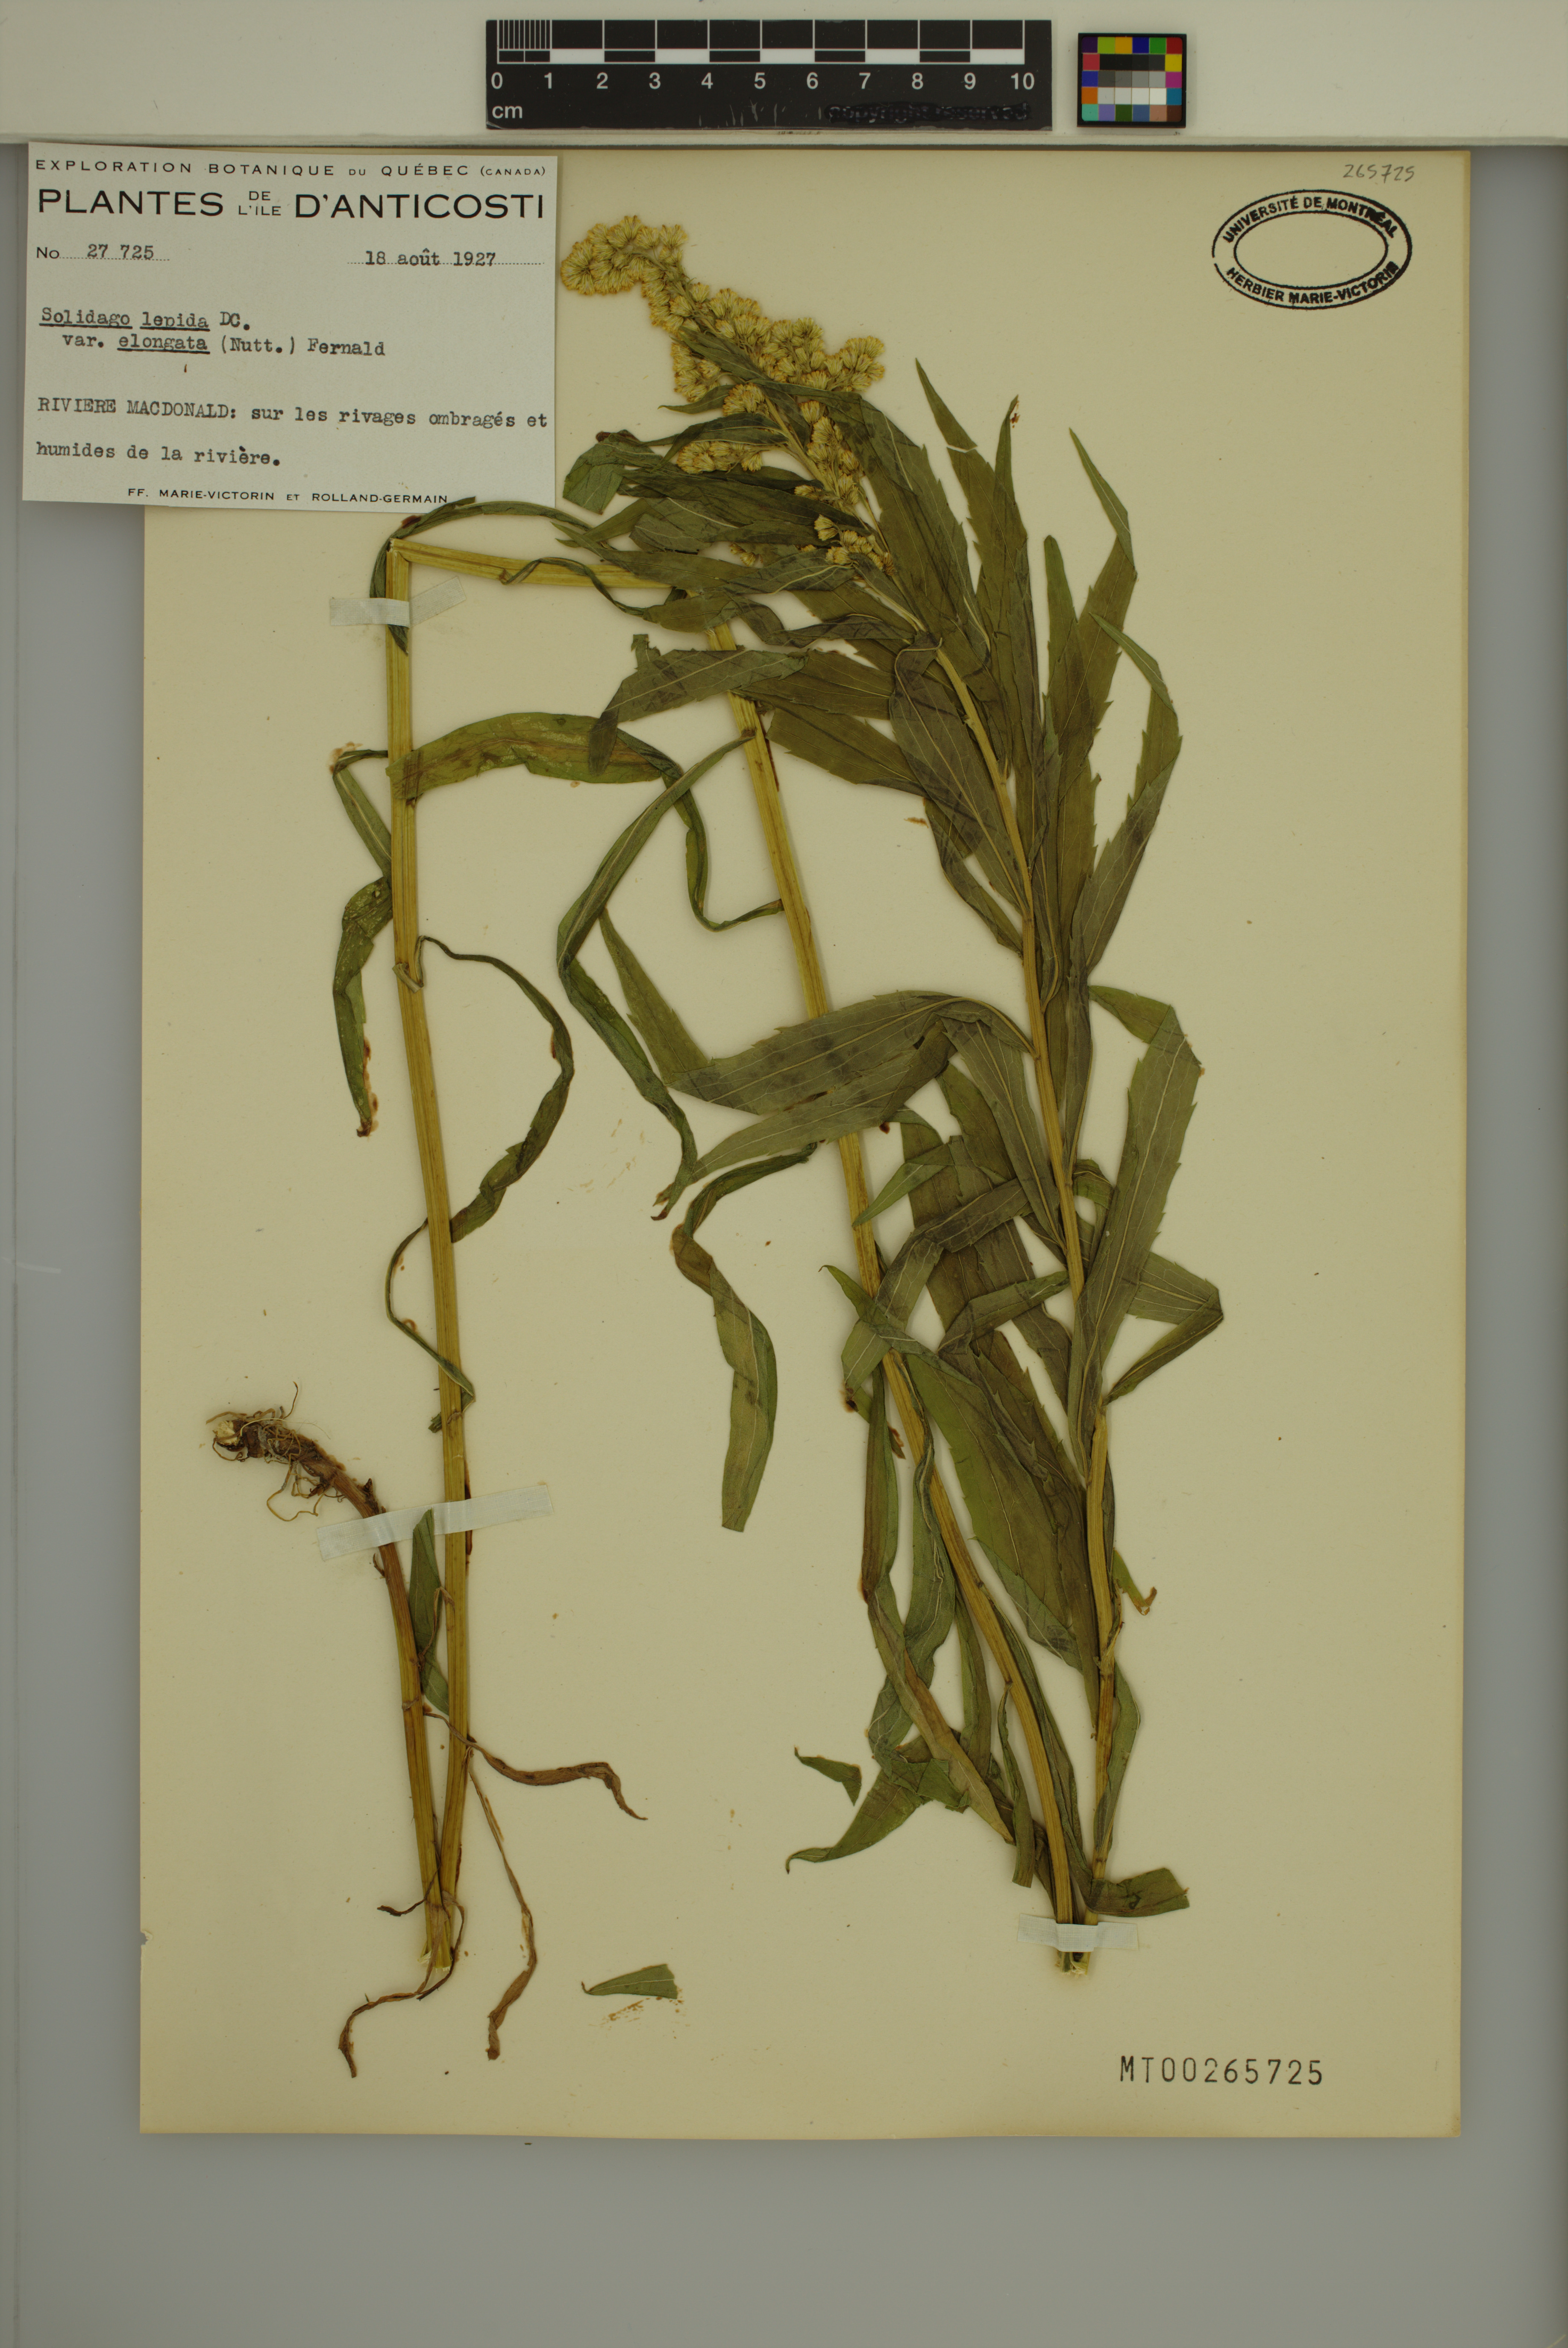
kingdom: Plantae
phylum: Tracheophyta
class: Magnoliopsida
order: Asterales
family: Asteraceae
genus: Solidago
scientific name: Solidago brendae
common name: Brenda's goldenrod
